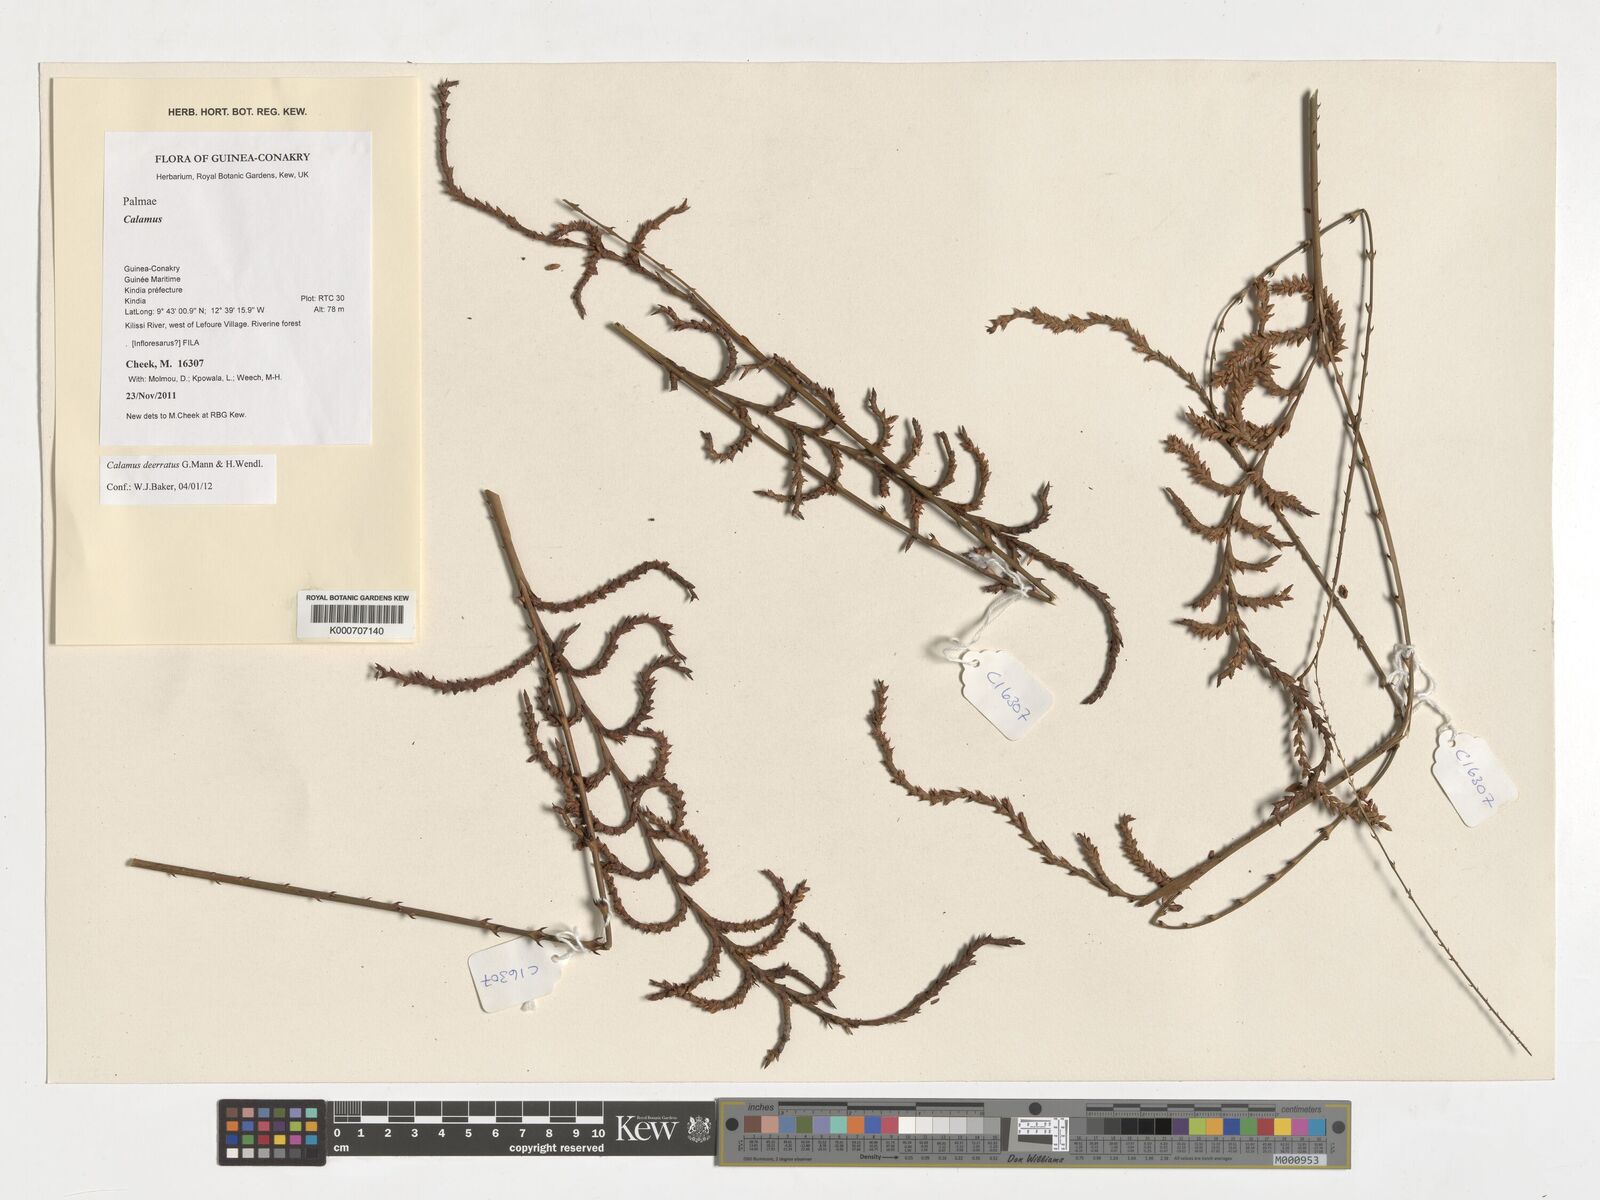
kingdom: Plantae
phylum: Tracheophyta
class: Liliopsida
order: Arecales
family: Arecaceae
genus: Calamus
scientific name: Calamus deerratus
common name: Rattan
